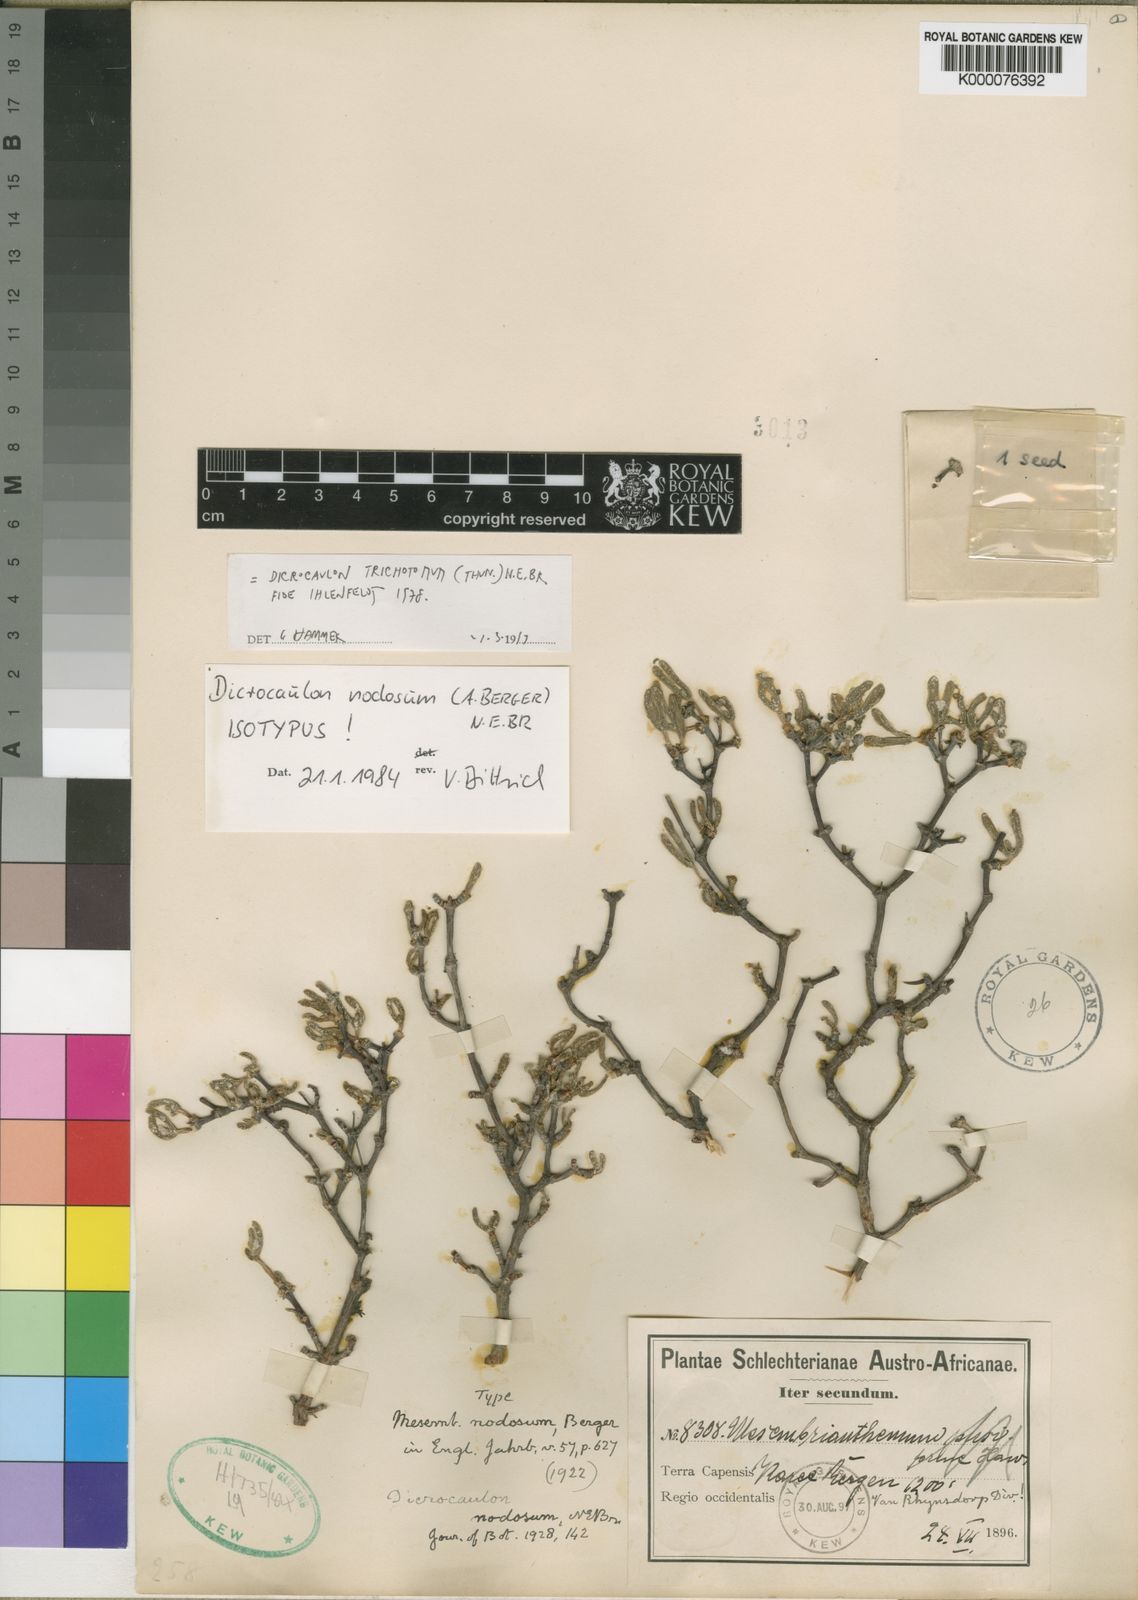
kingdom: Plantae
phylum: Tracheophyta
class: Magnoliopsida
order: Caryophyllales
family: Aizoaceae
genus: Dicrocaulon
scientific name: Dicrocaulon nodosum
